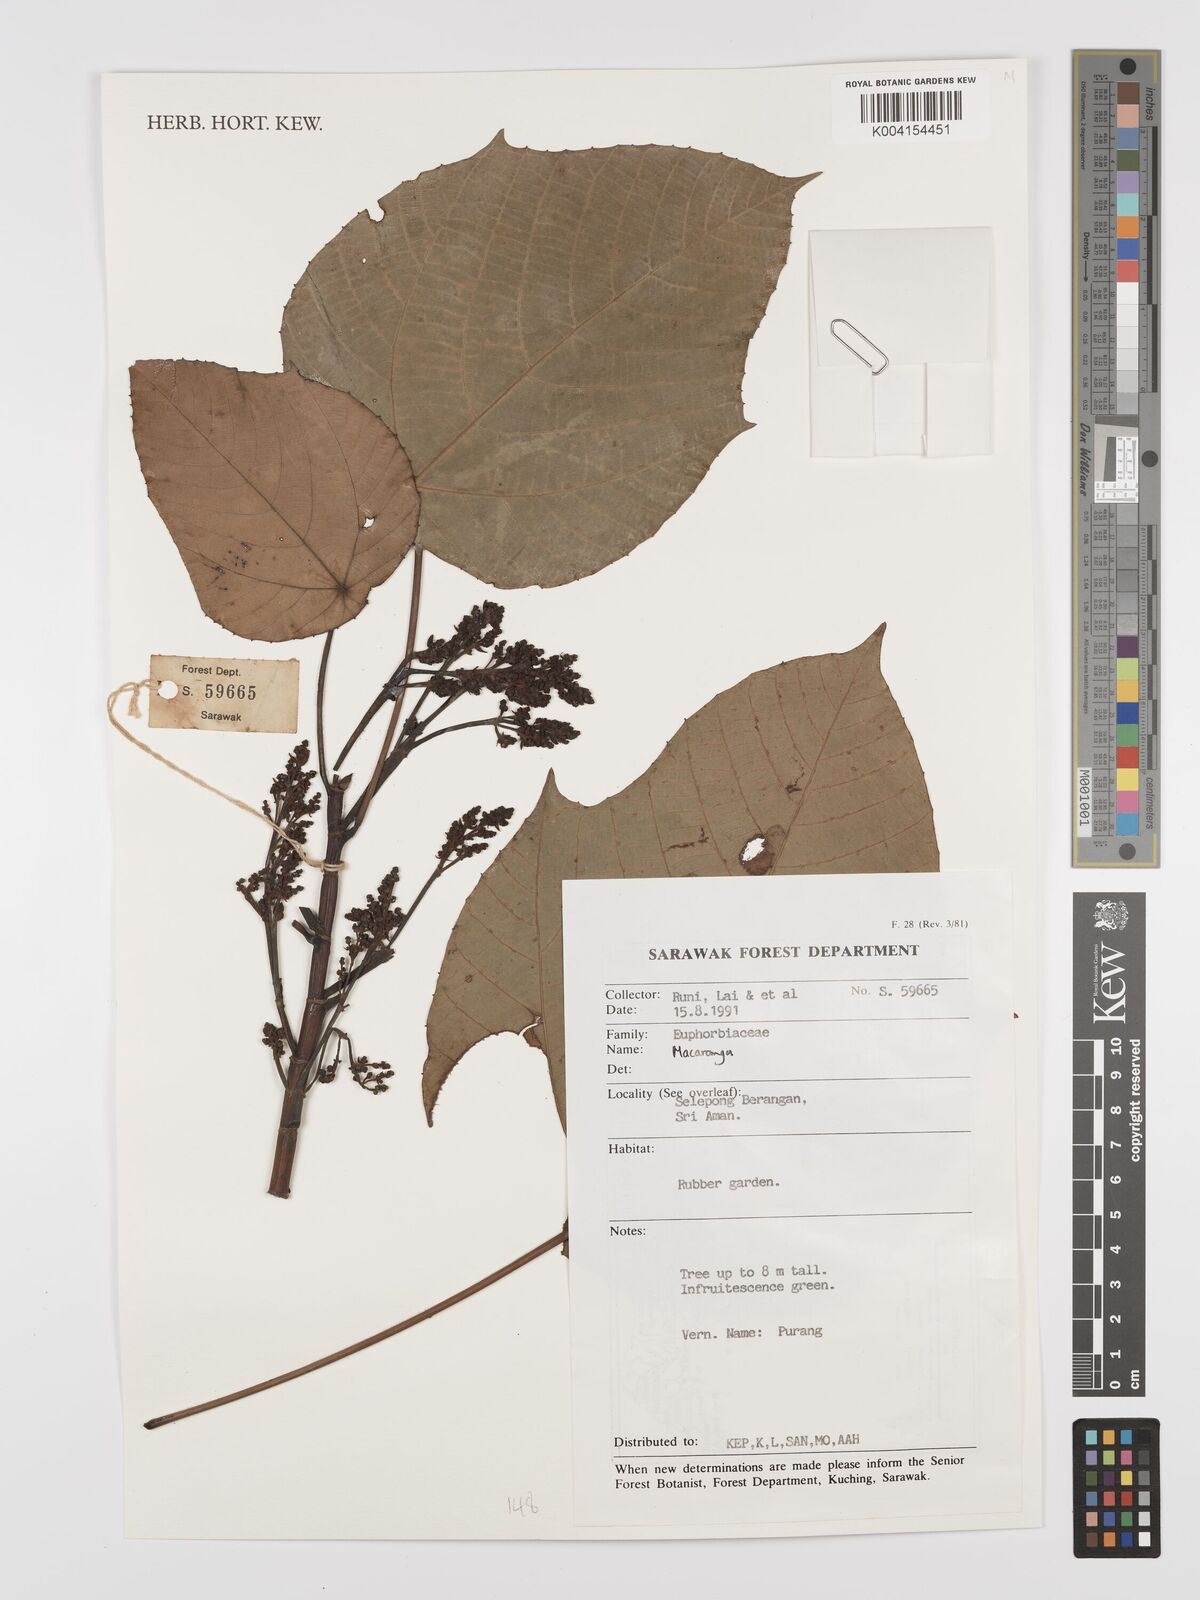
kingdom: Plantae
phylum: Tracheophyta
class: Magnoliopsida
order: Malpighiales
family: Euphorbiaceae
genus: Macaranga
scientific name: Macaranga
